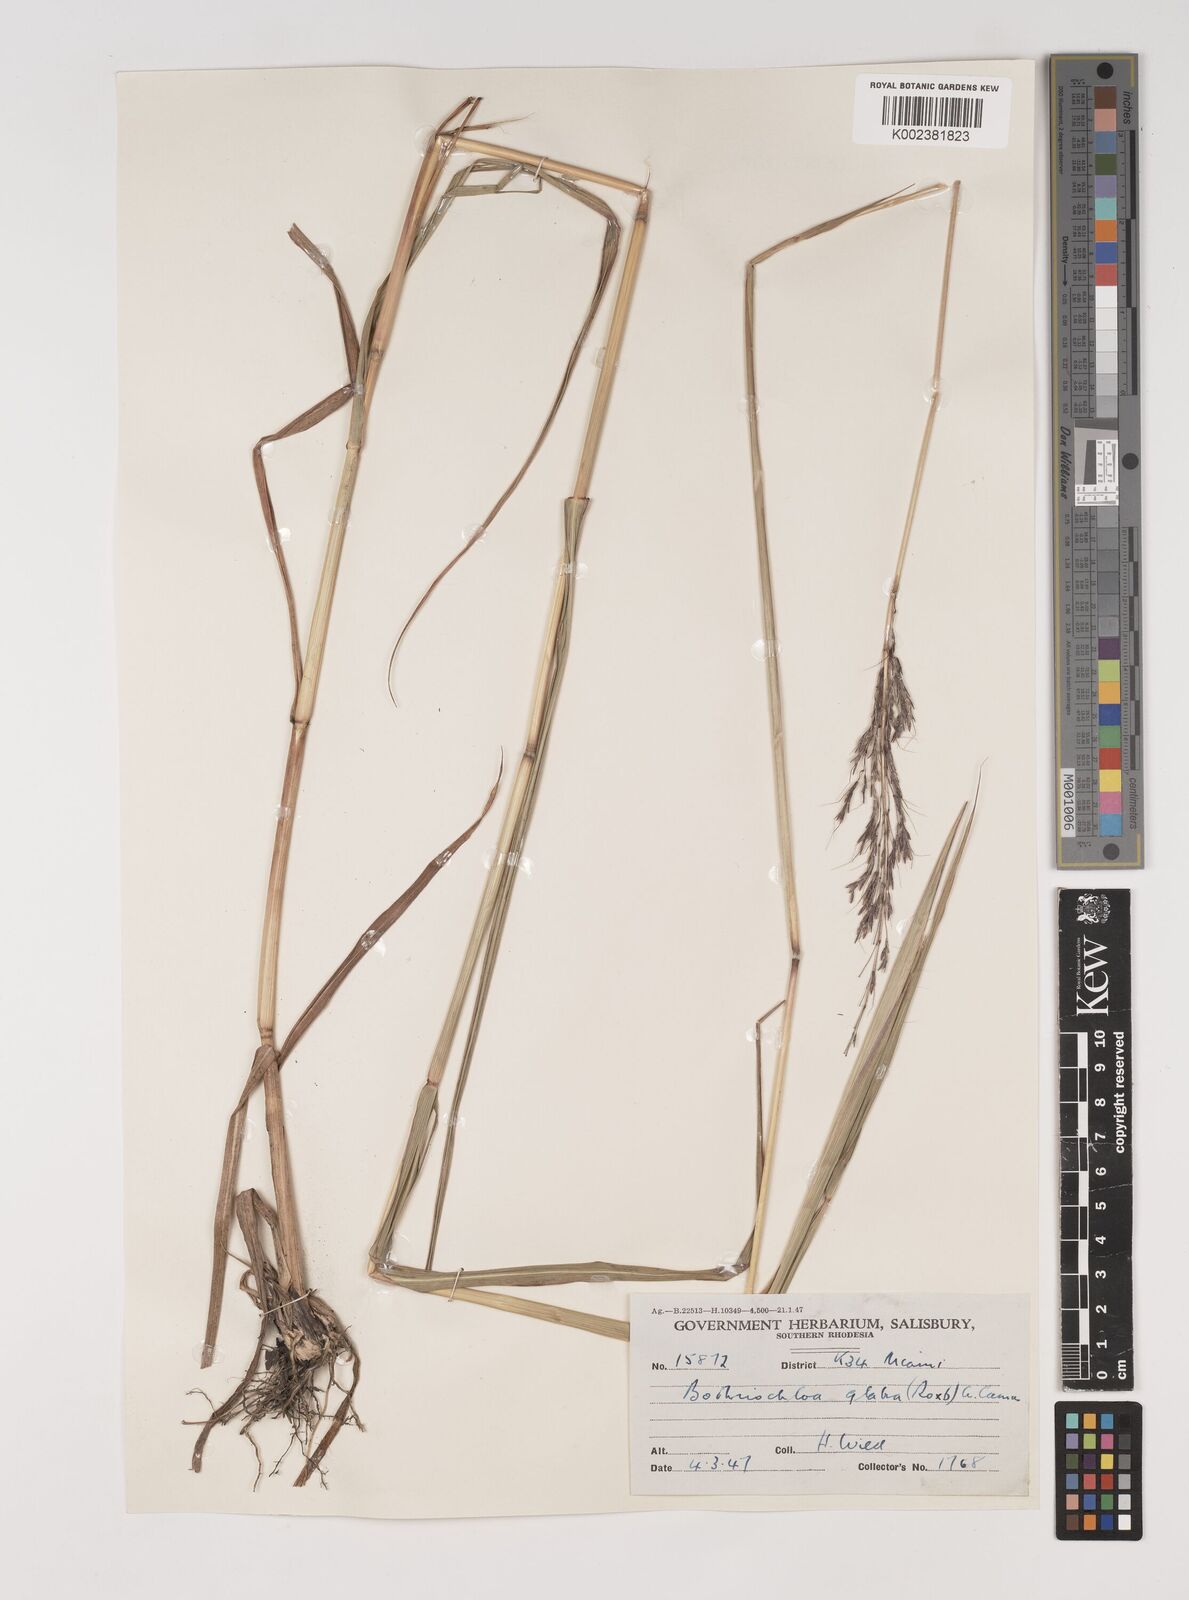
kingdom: Plantae
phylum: Tracheophyta
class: Liliopsida
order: Poales
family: Poaceae
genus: Bothriochloa
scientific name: Bothriochloa bladhii
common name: Caucasian bluestem
